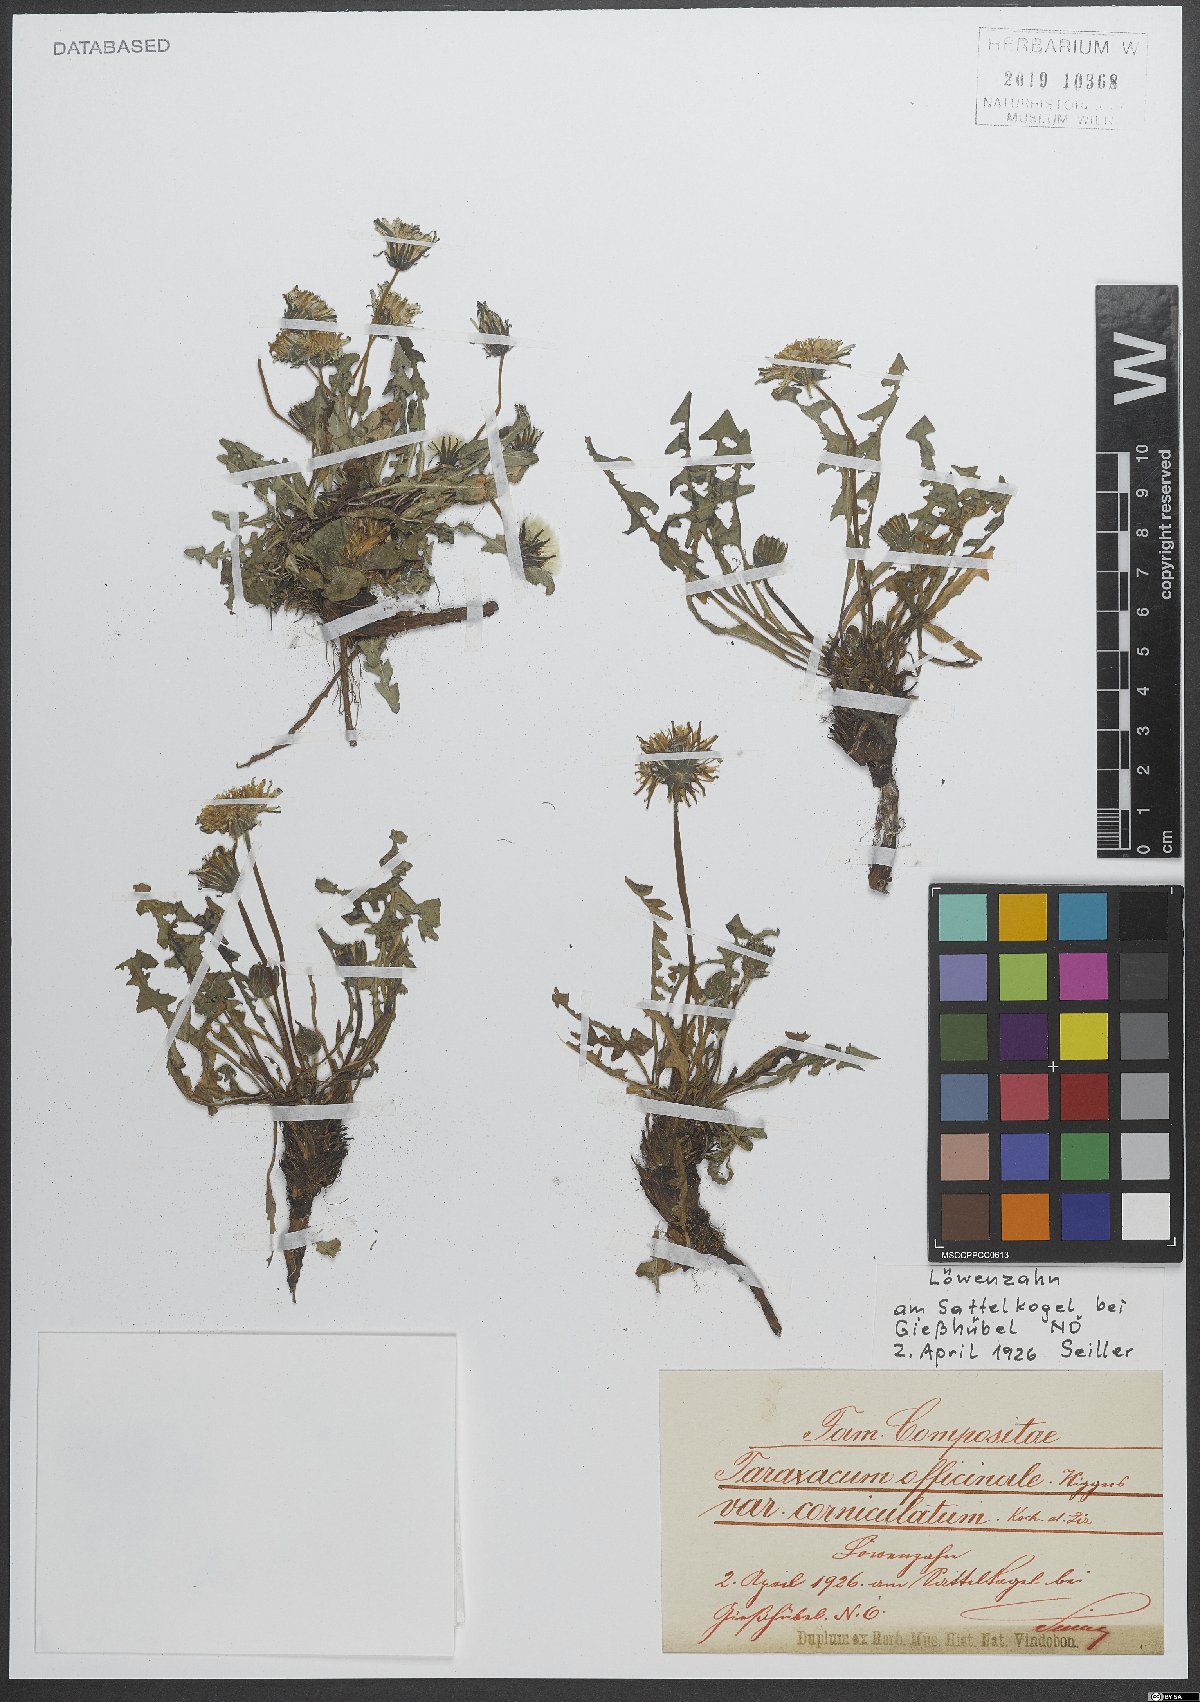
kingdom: Plantae
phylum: Tracheophyta
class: Magnoliopsida
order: Asterales
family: Asteraceae
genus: Taraxacum
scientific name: Taraxacum officinale
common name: Common dandelion
